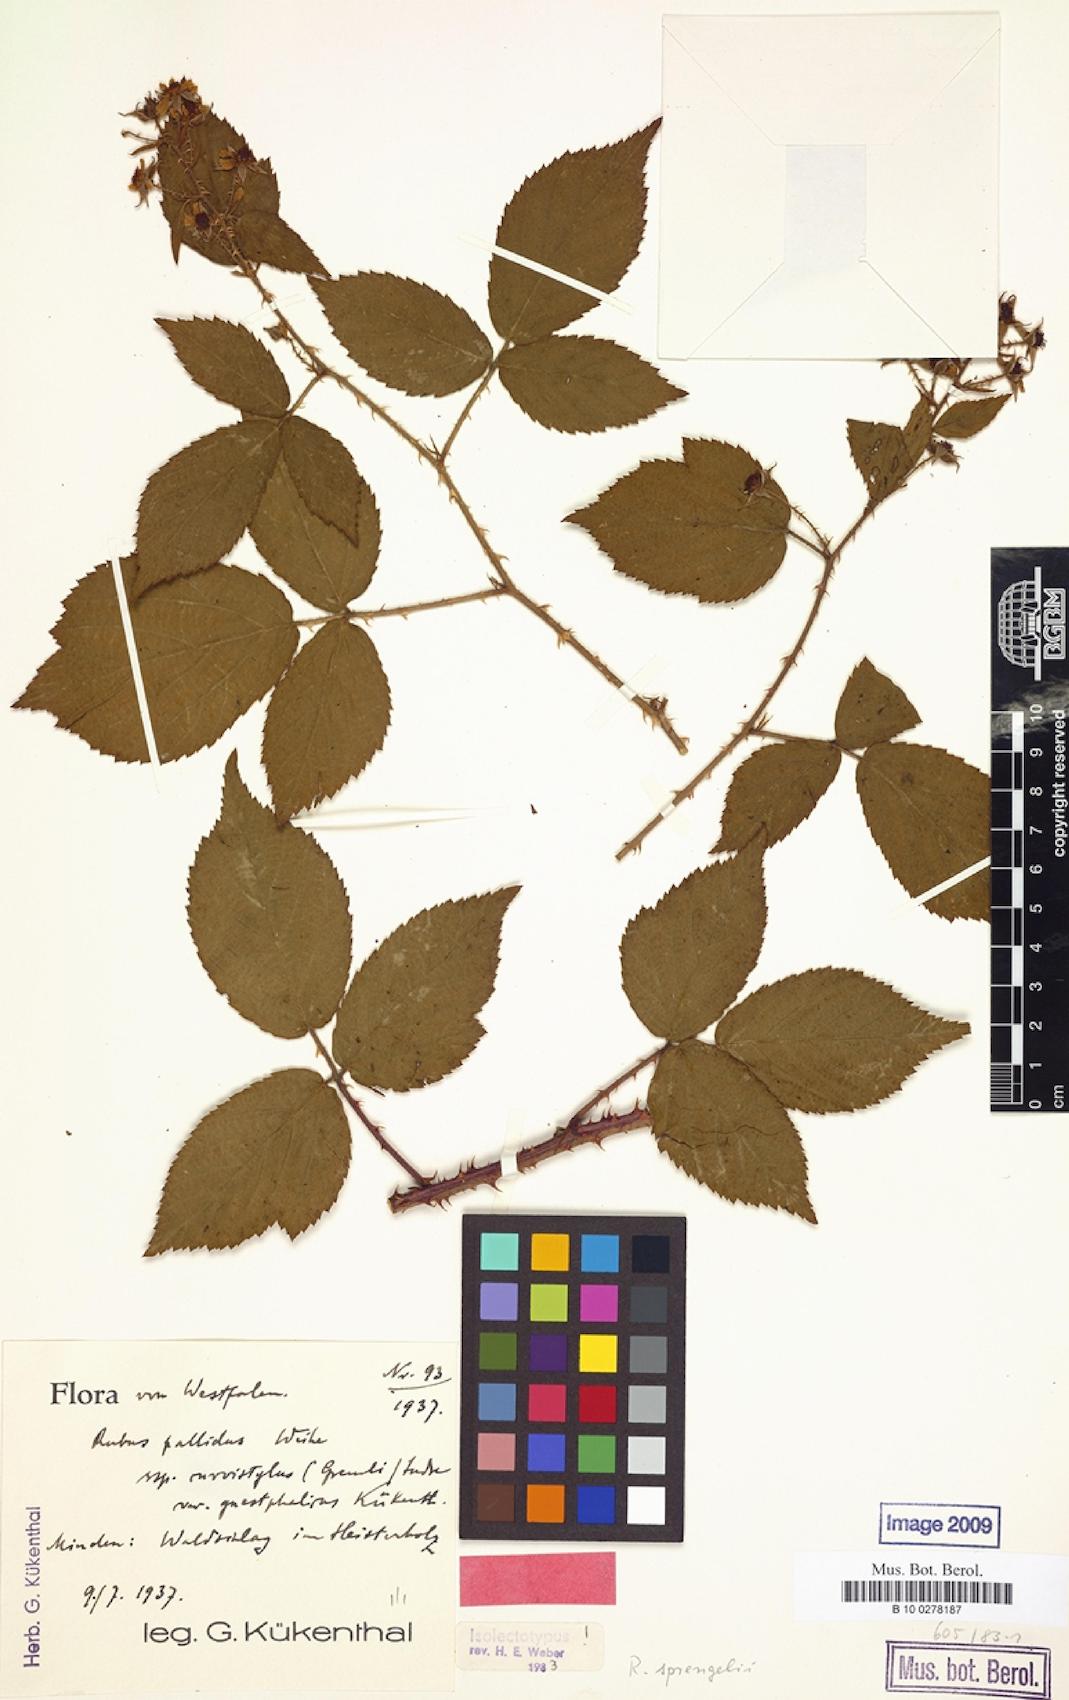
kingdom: Plantae
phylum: Tracheophyta
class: Magnoliopsida
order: Rosales
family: Rosaceae
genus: Rubus
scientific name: Rubus sprengelii
